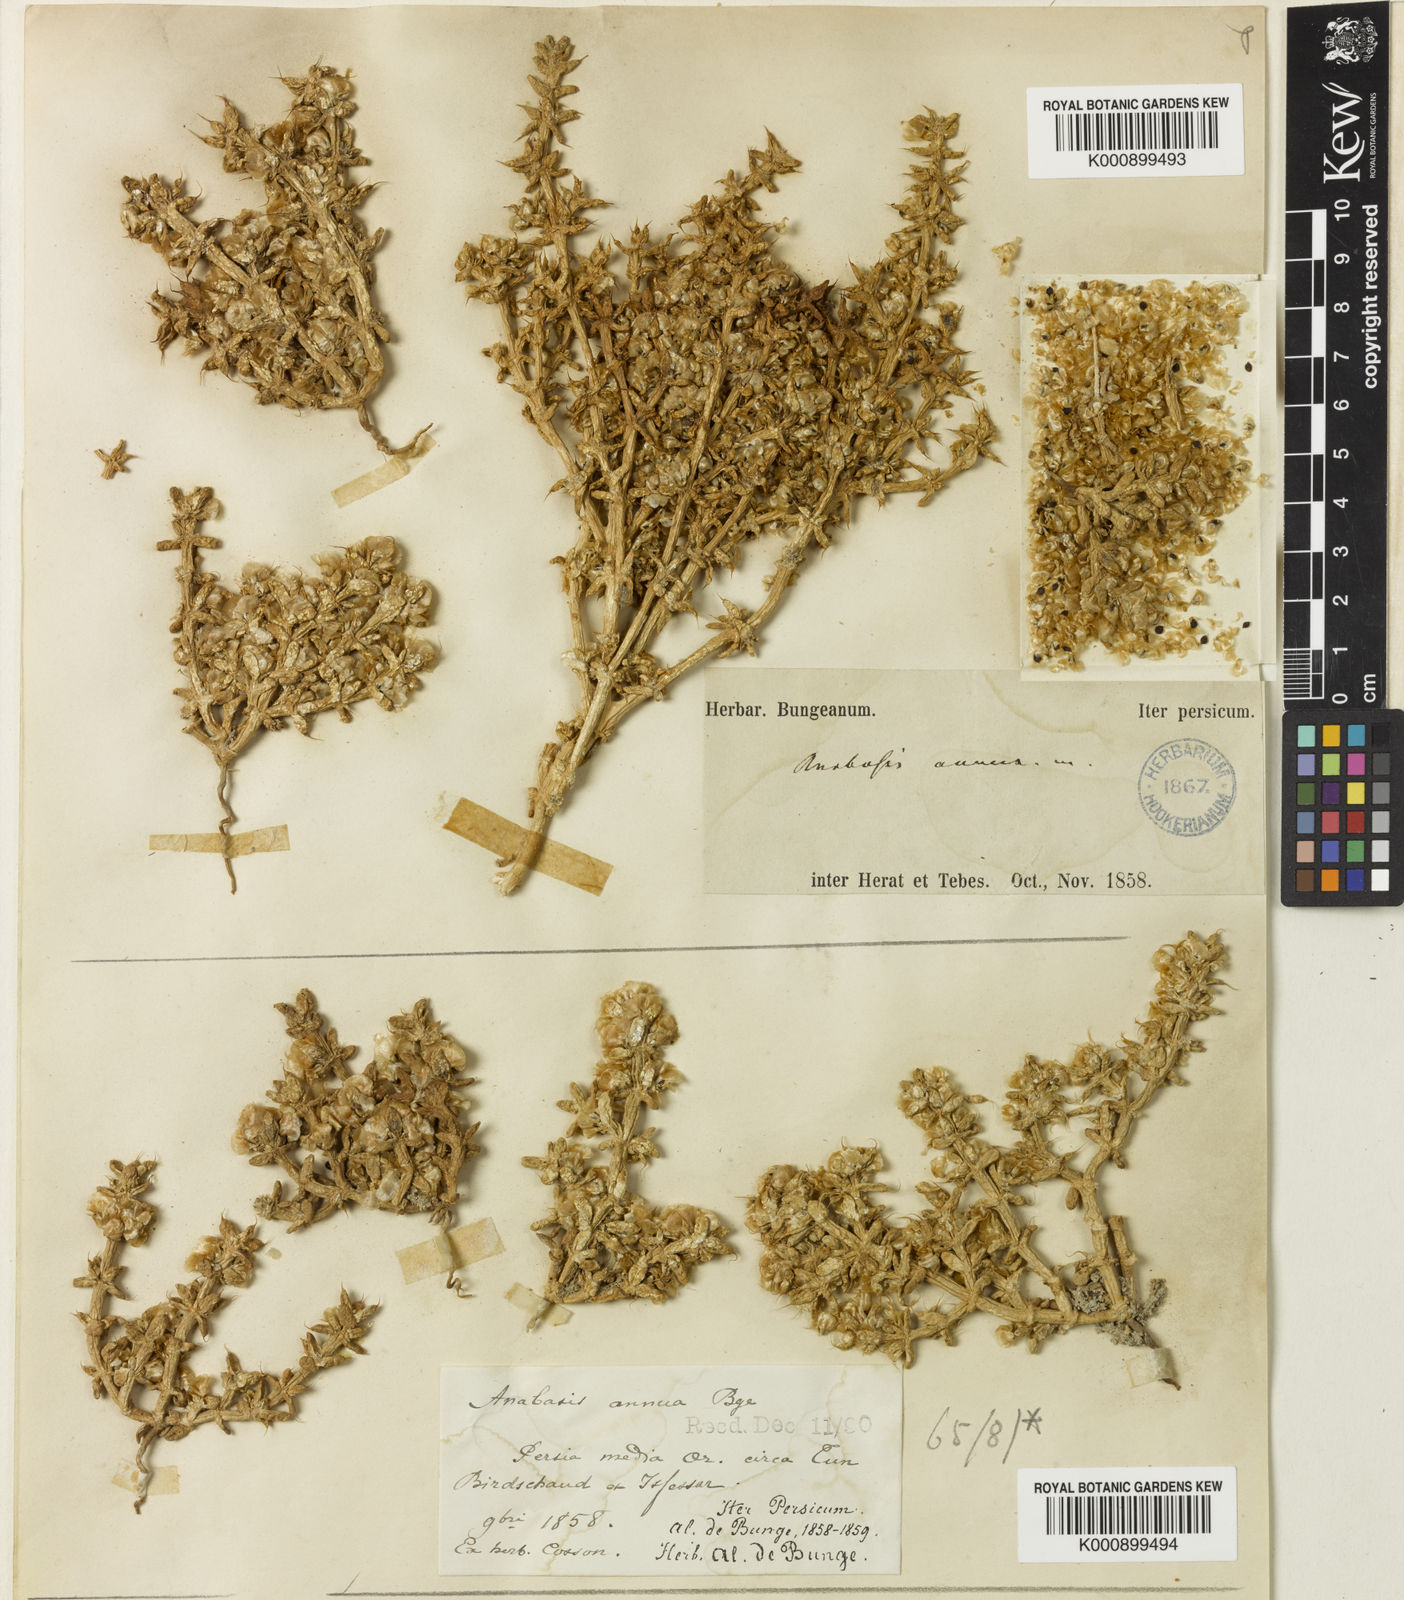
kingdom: Plantae
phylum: Tracheophyta
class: Magnoliopsida
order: Caryophyllales
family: Amaranthaceae
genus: Anabasis
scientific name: Anabasis annua
